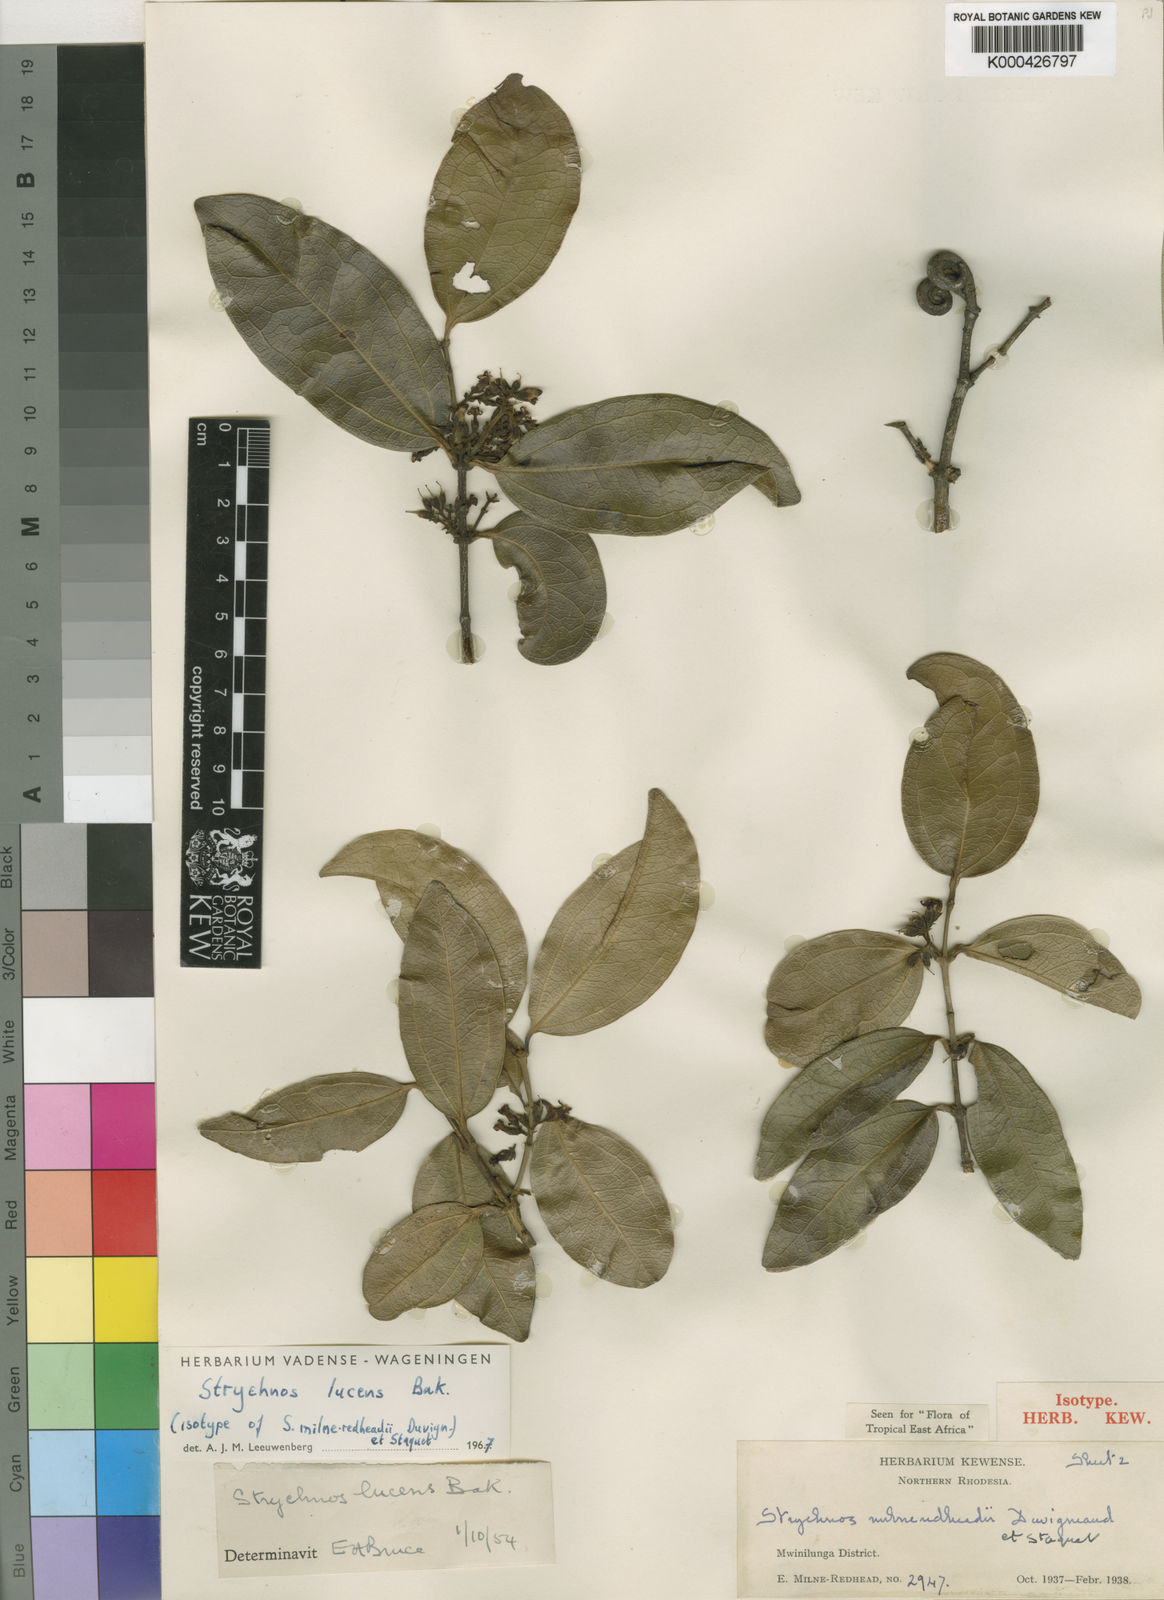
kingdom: Plantae
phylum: Tracheophyta
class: Magnoliopsida
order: Gentianales
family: Loganiaceae
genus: Strychnos
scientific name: Strychnos lucens
